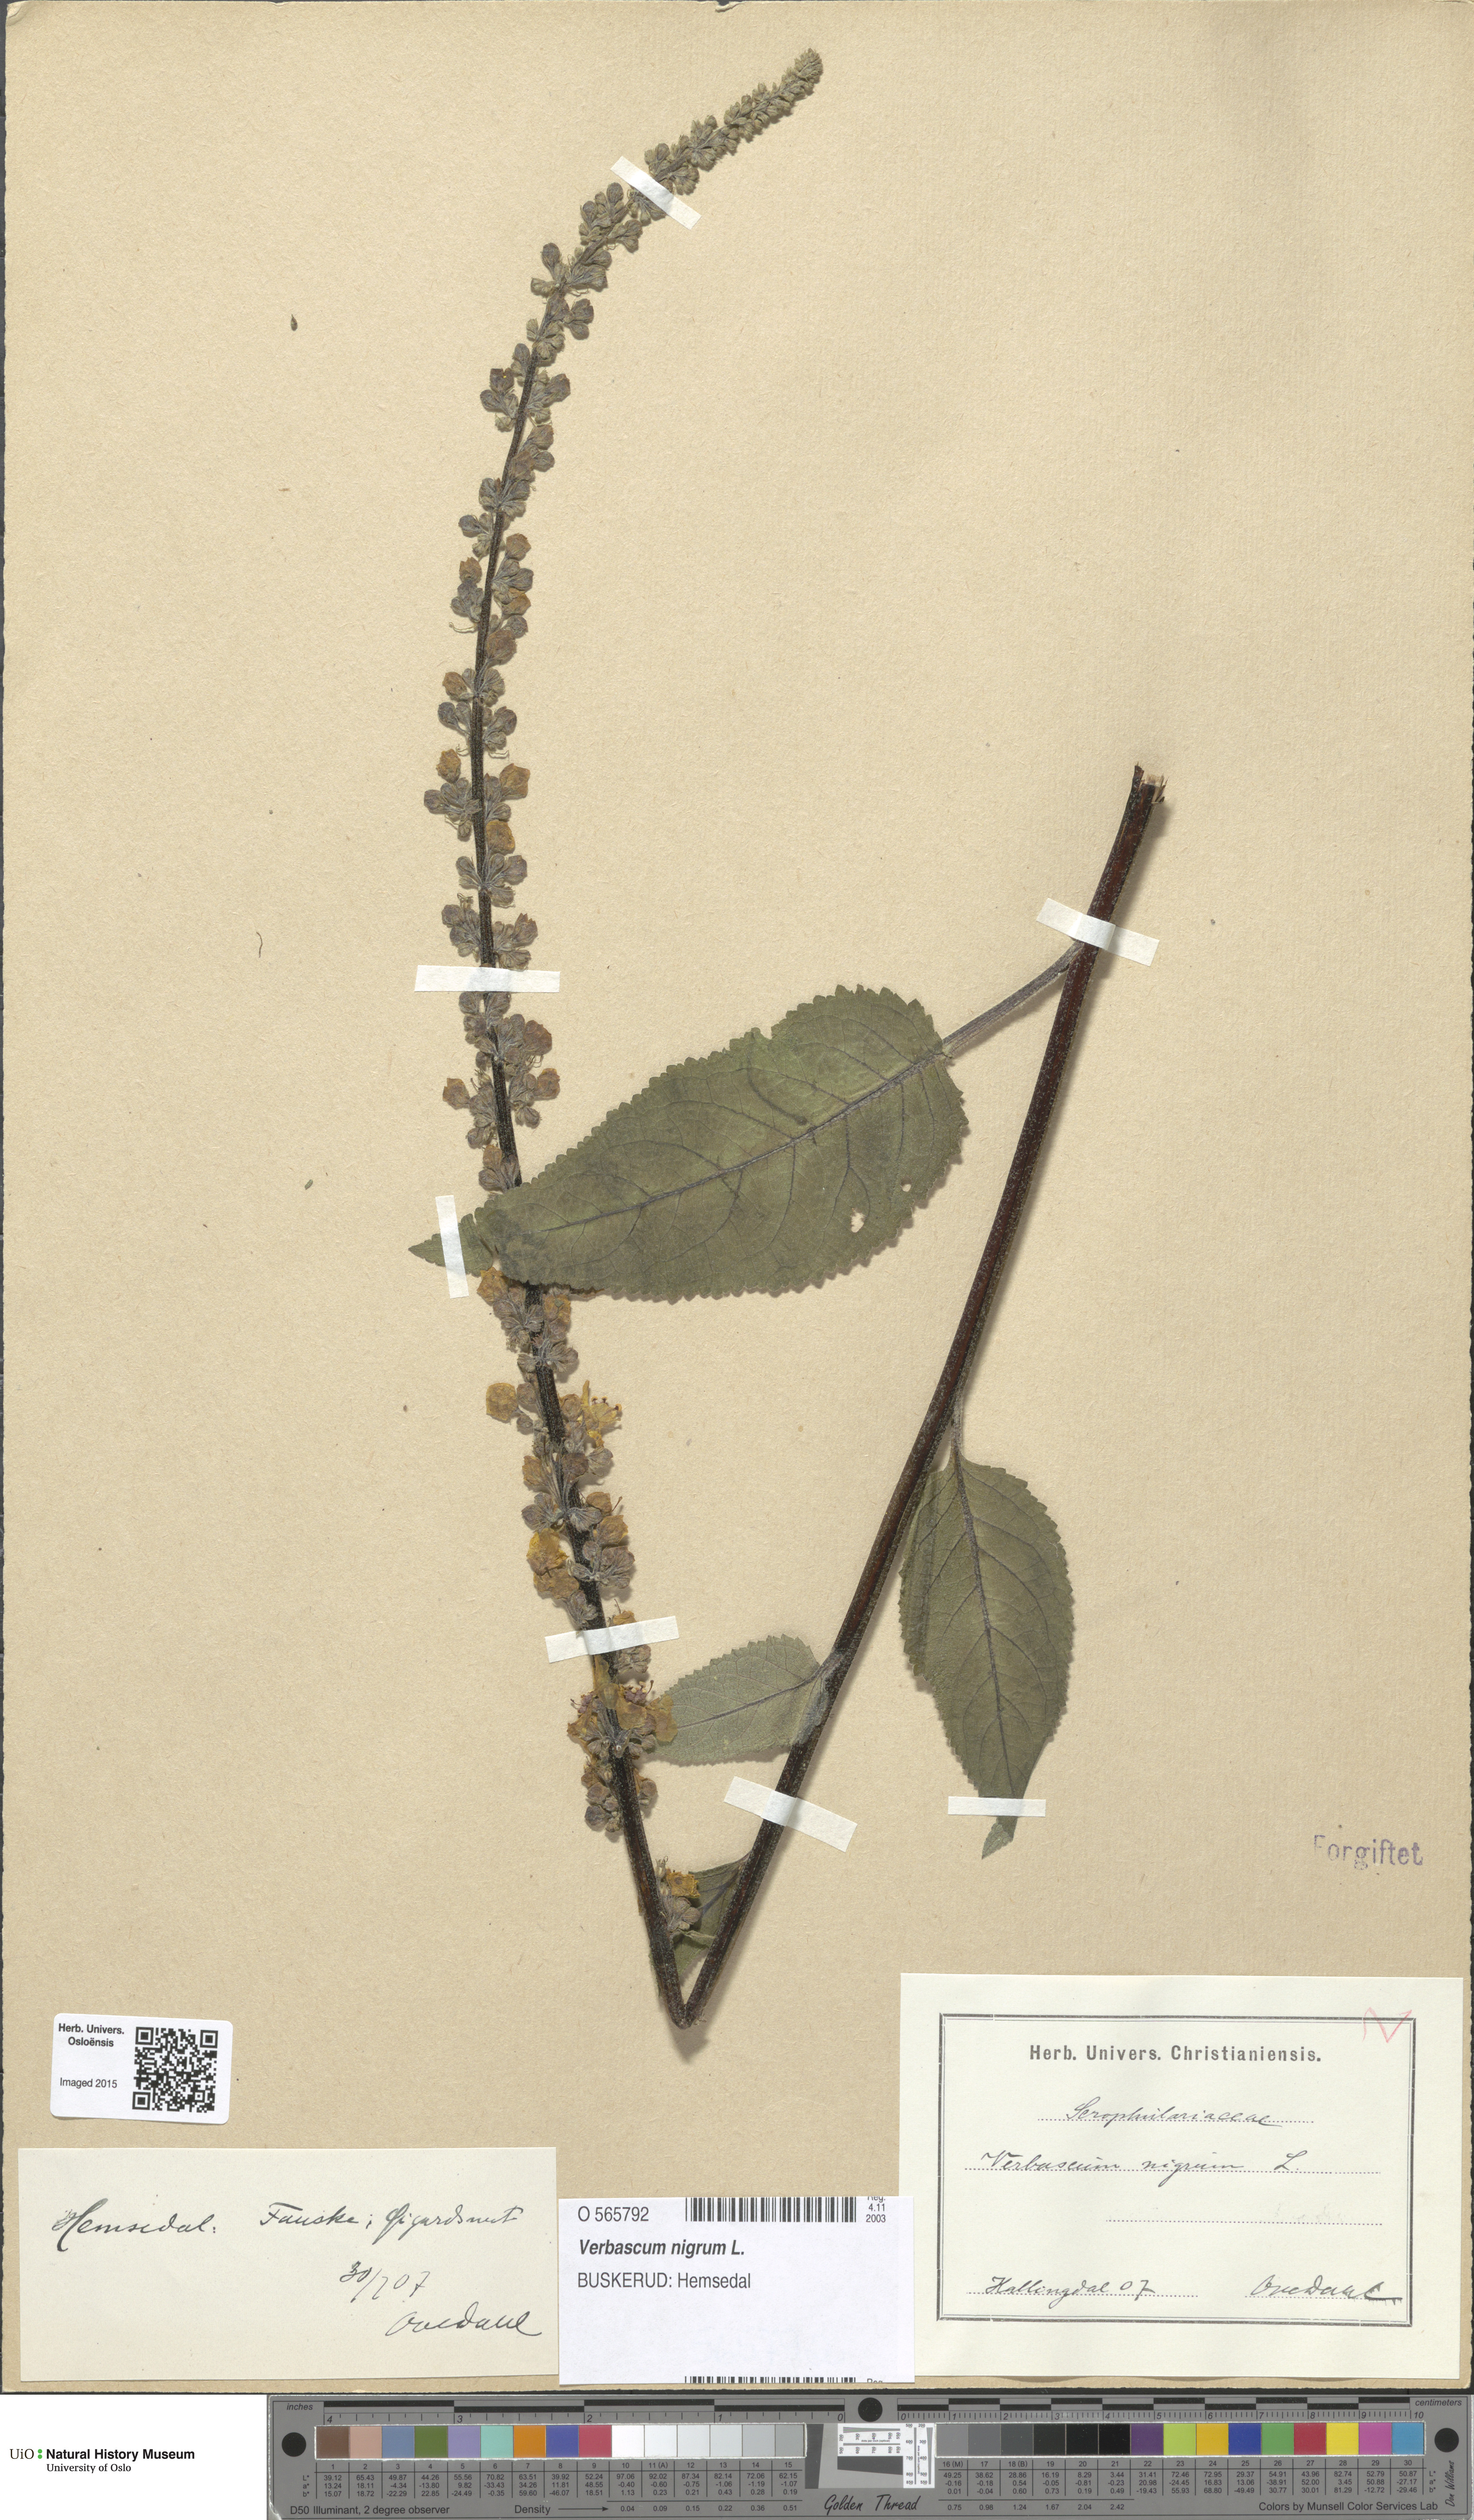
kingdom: Plantae
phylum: Tracheophyta
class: Magnoliopsida
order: Lamiales
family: Scrophulariaceae
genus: Verbascum
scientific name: Verbascum nigrum
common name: Dark mullein
